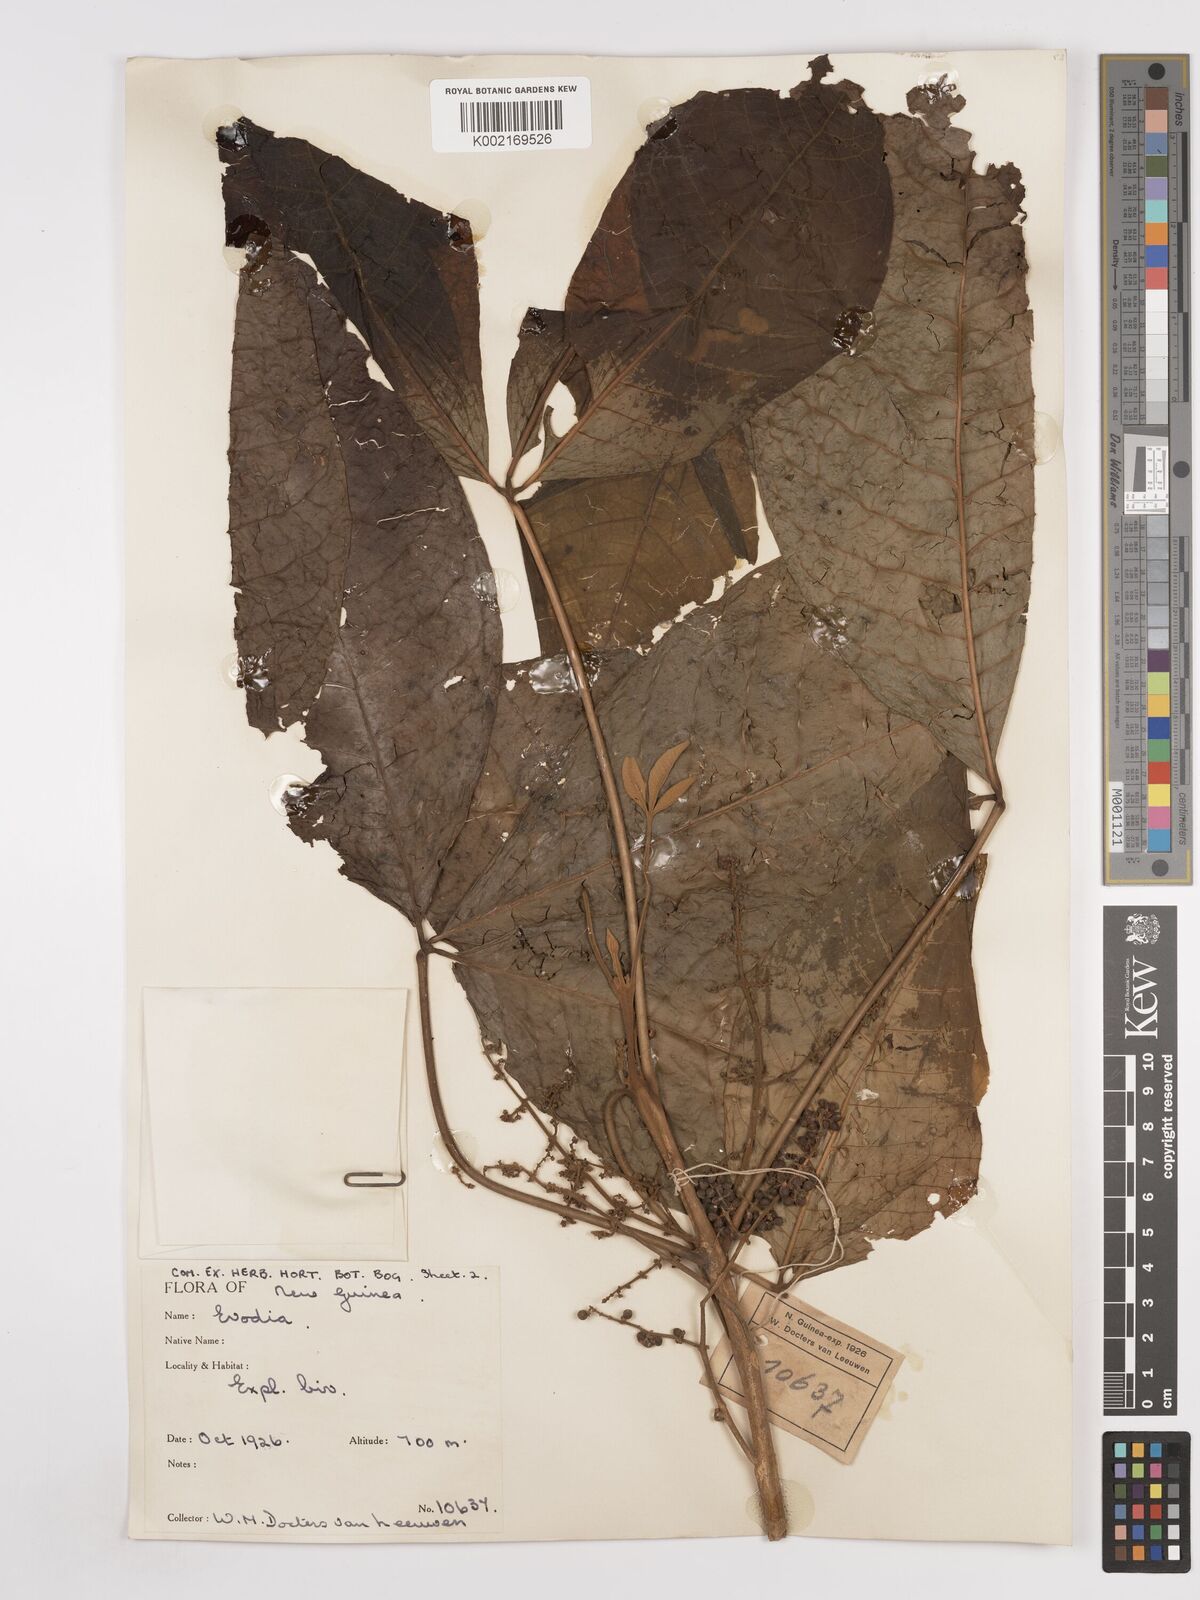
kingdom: Plantae
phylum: Tracheophyta
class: Magnoliopsida
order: Sapindales
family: Rutaceae
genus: Euodia
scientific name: Euodia
